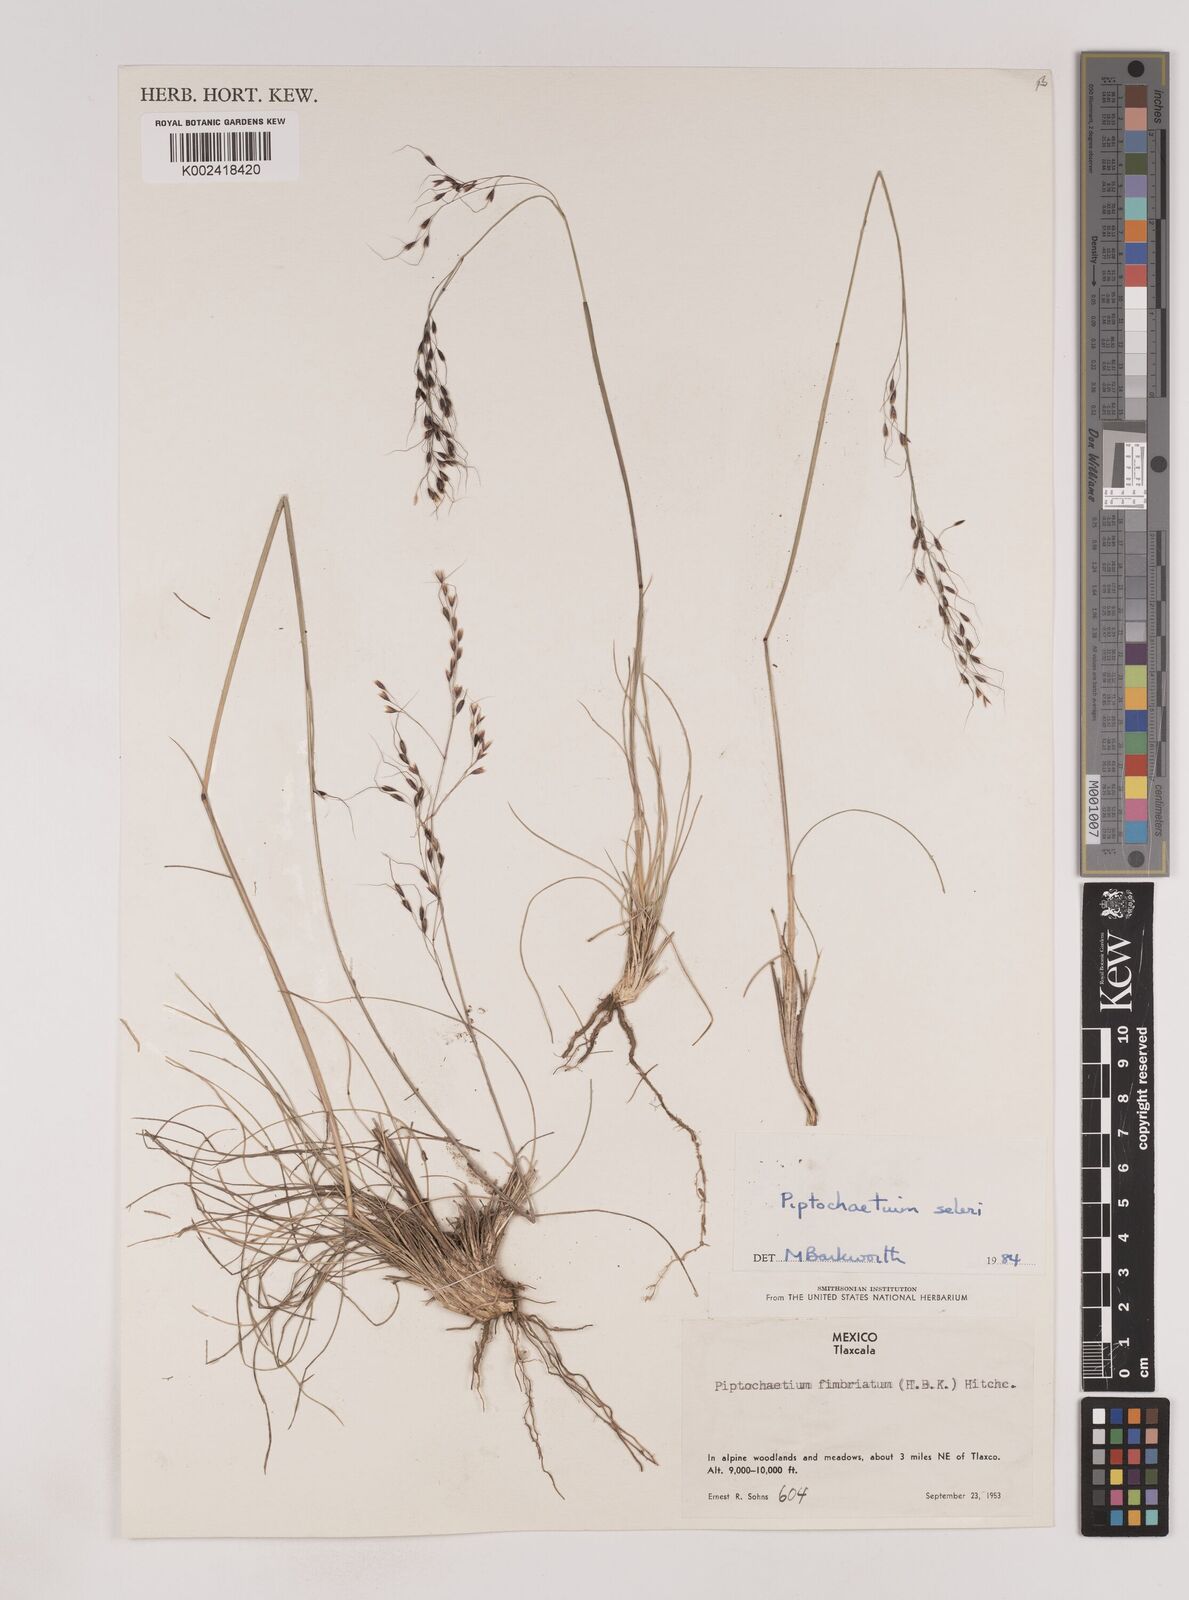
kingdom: Plantae
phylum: Tracheophyta
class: Liliopsida
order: Poales
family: Poaceae
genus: Piptochaetium
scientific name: Piptochaetium seleri
